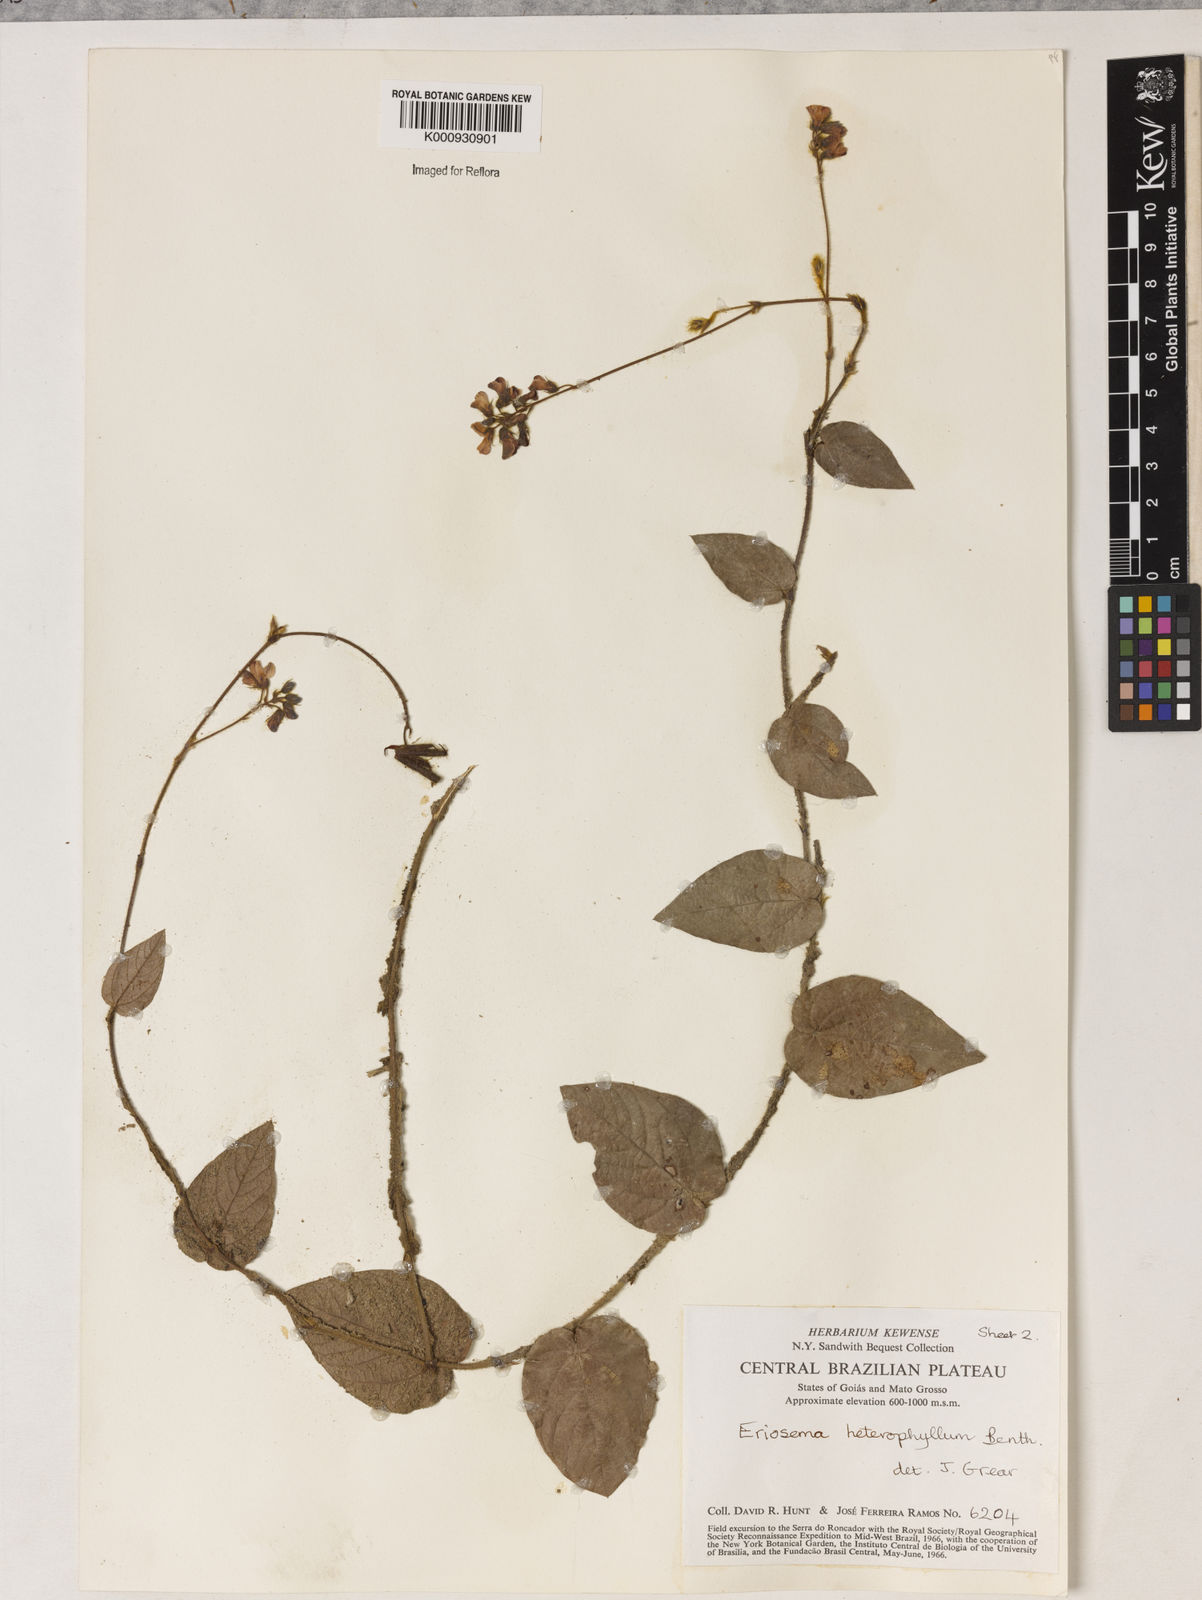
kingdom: Plantae
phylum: Tracheophyta
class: Magnoliopsida
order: Fabales
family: Fabaceae
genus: Eriosema
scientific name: Eriosema heterophyllum
